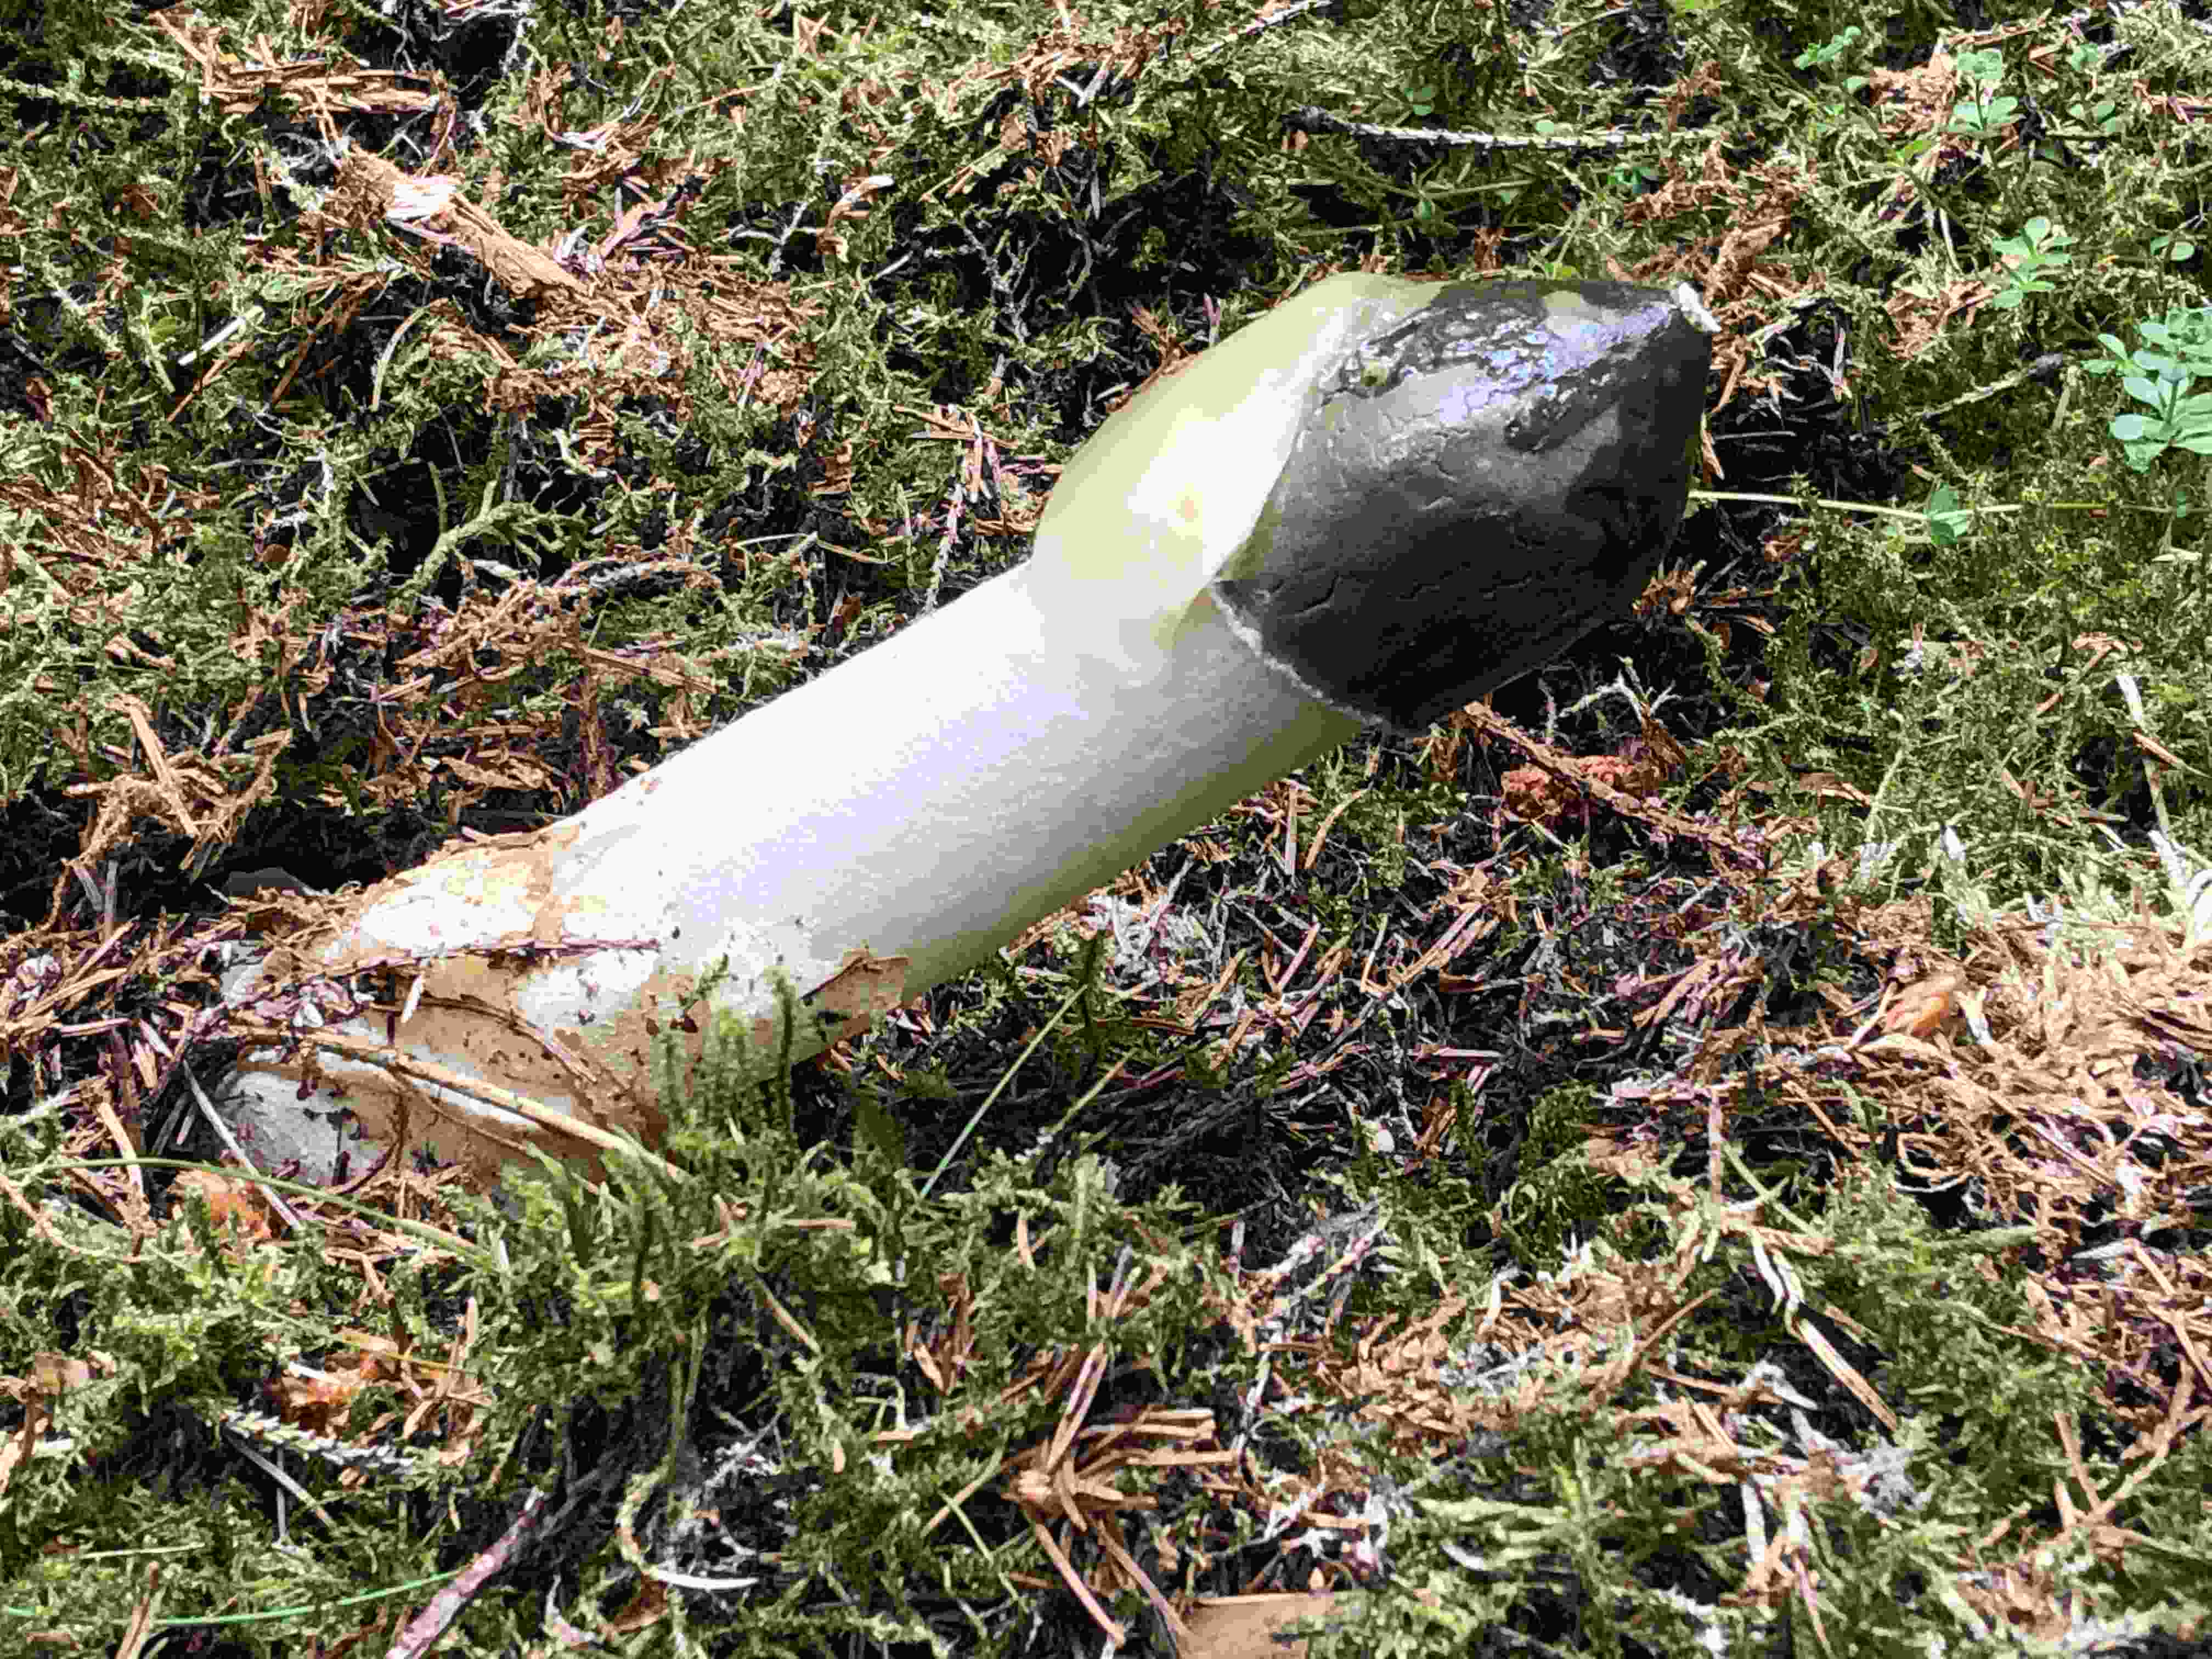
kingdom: Fungi
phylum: Basidiomycota
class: Agaricomycetes
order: Phallales
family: Phallaceae
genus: Phallus
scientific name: Phallus impudicus
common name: almindelig stinksvamp
